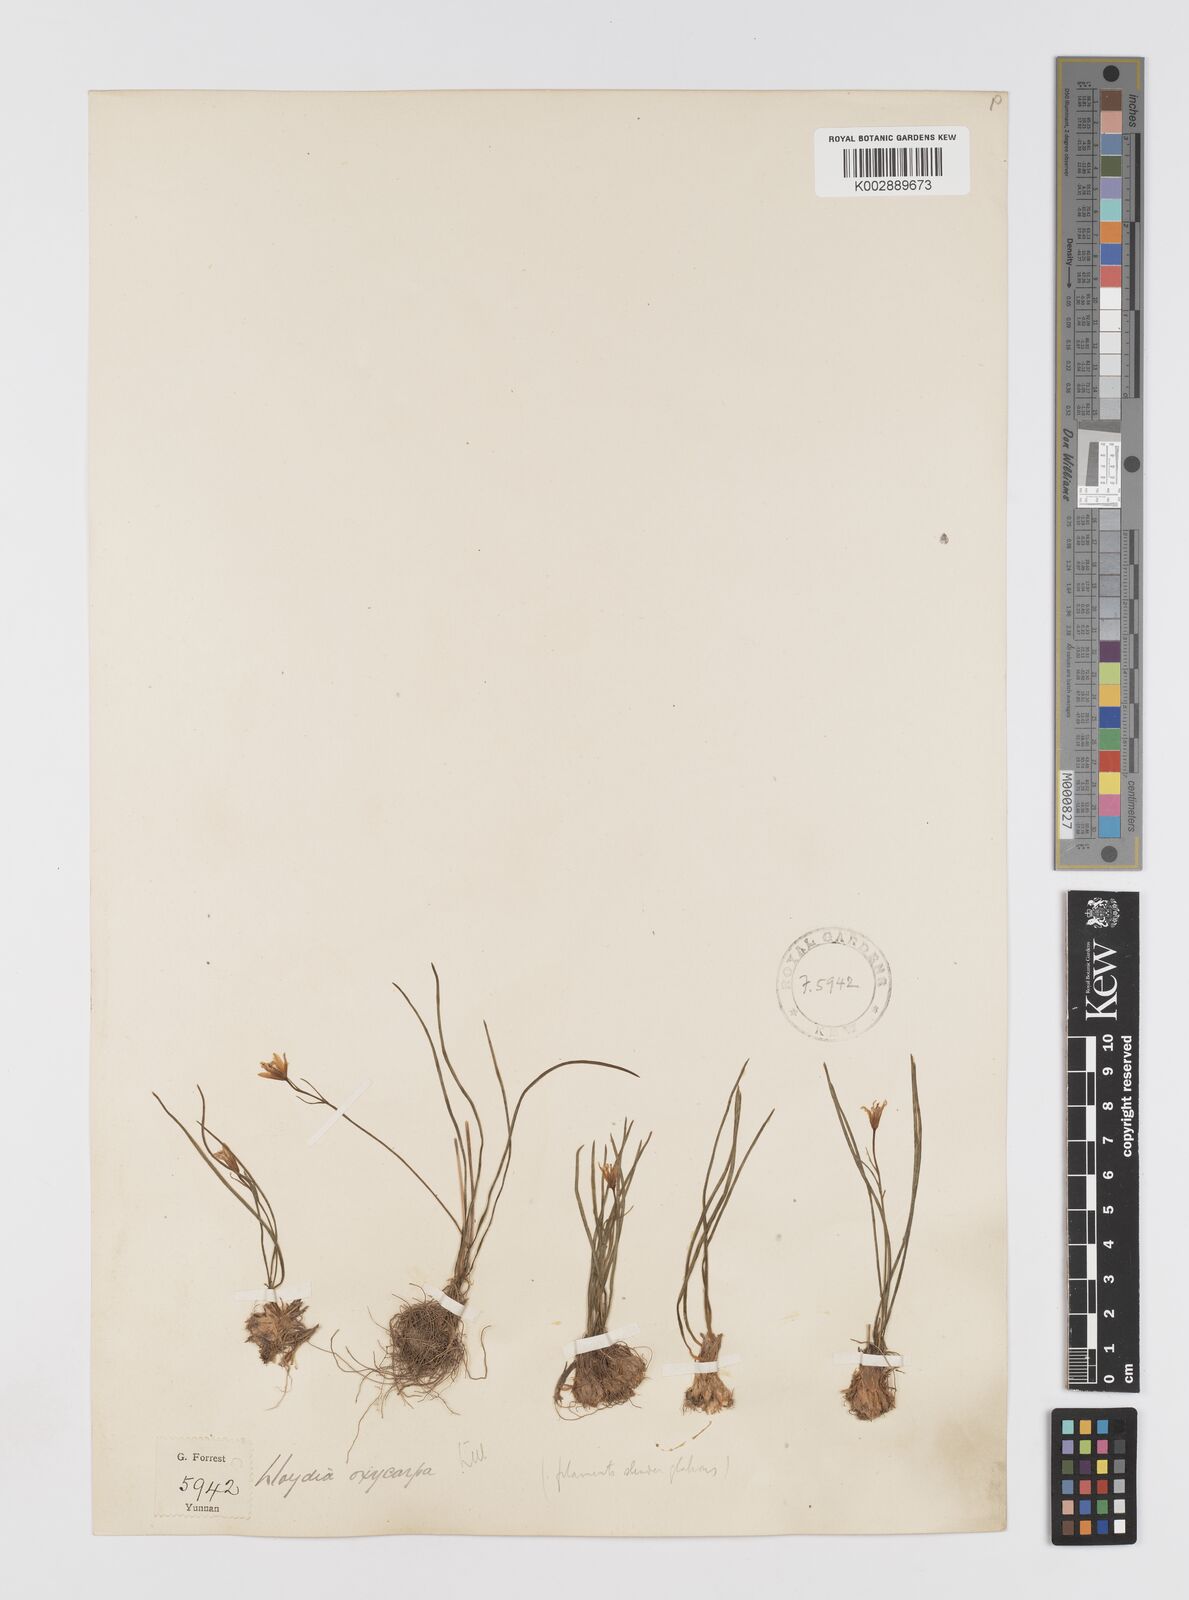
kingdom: Plantae
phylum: Tracheophyta
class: Liliopsida
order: Liliales
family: Liliaceae
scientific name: Liliaceae
